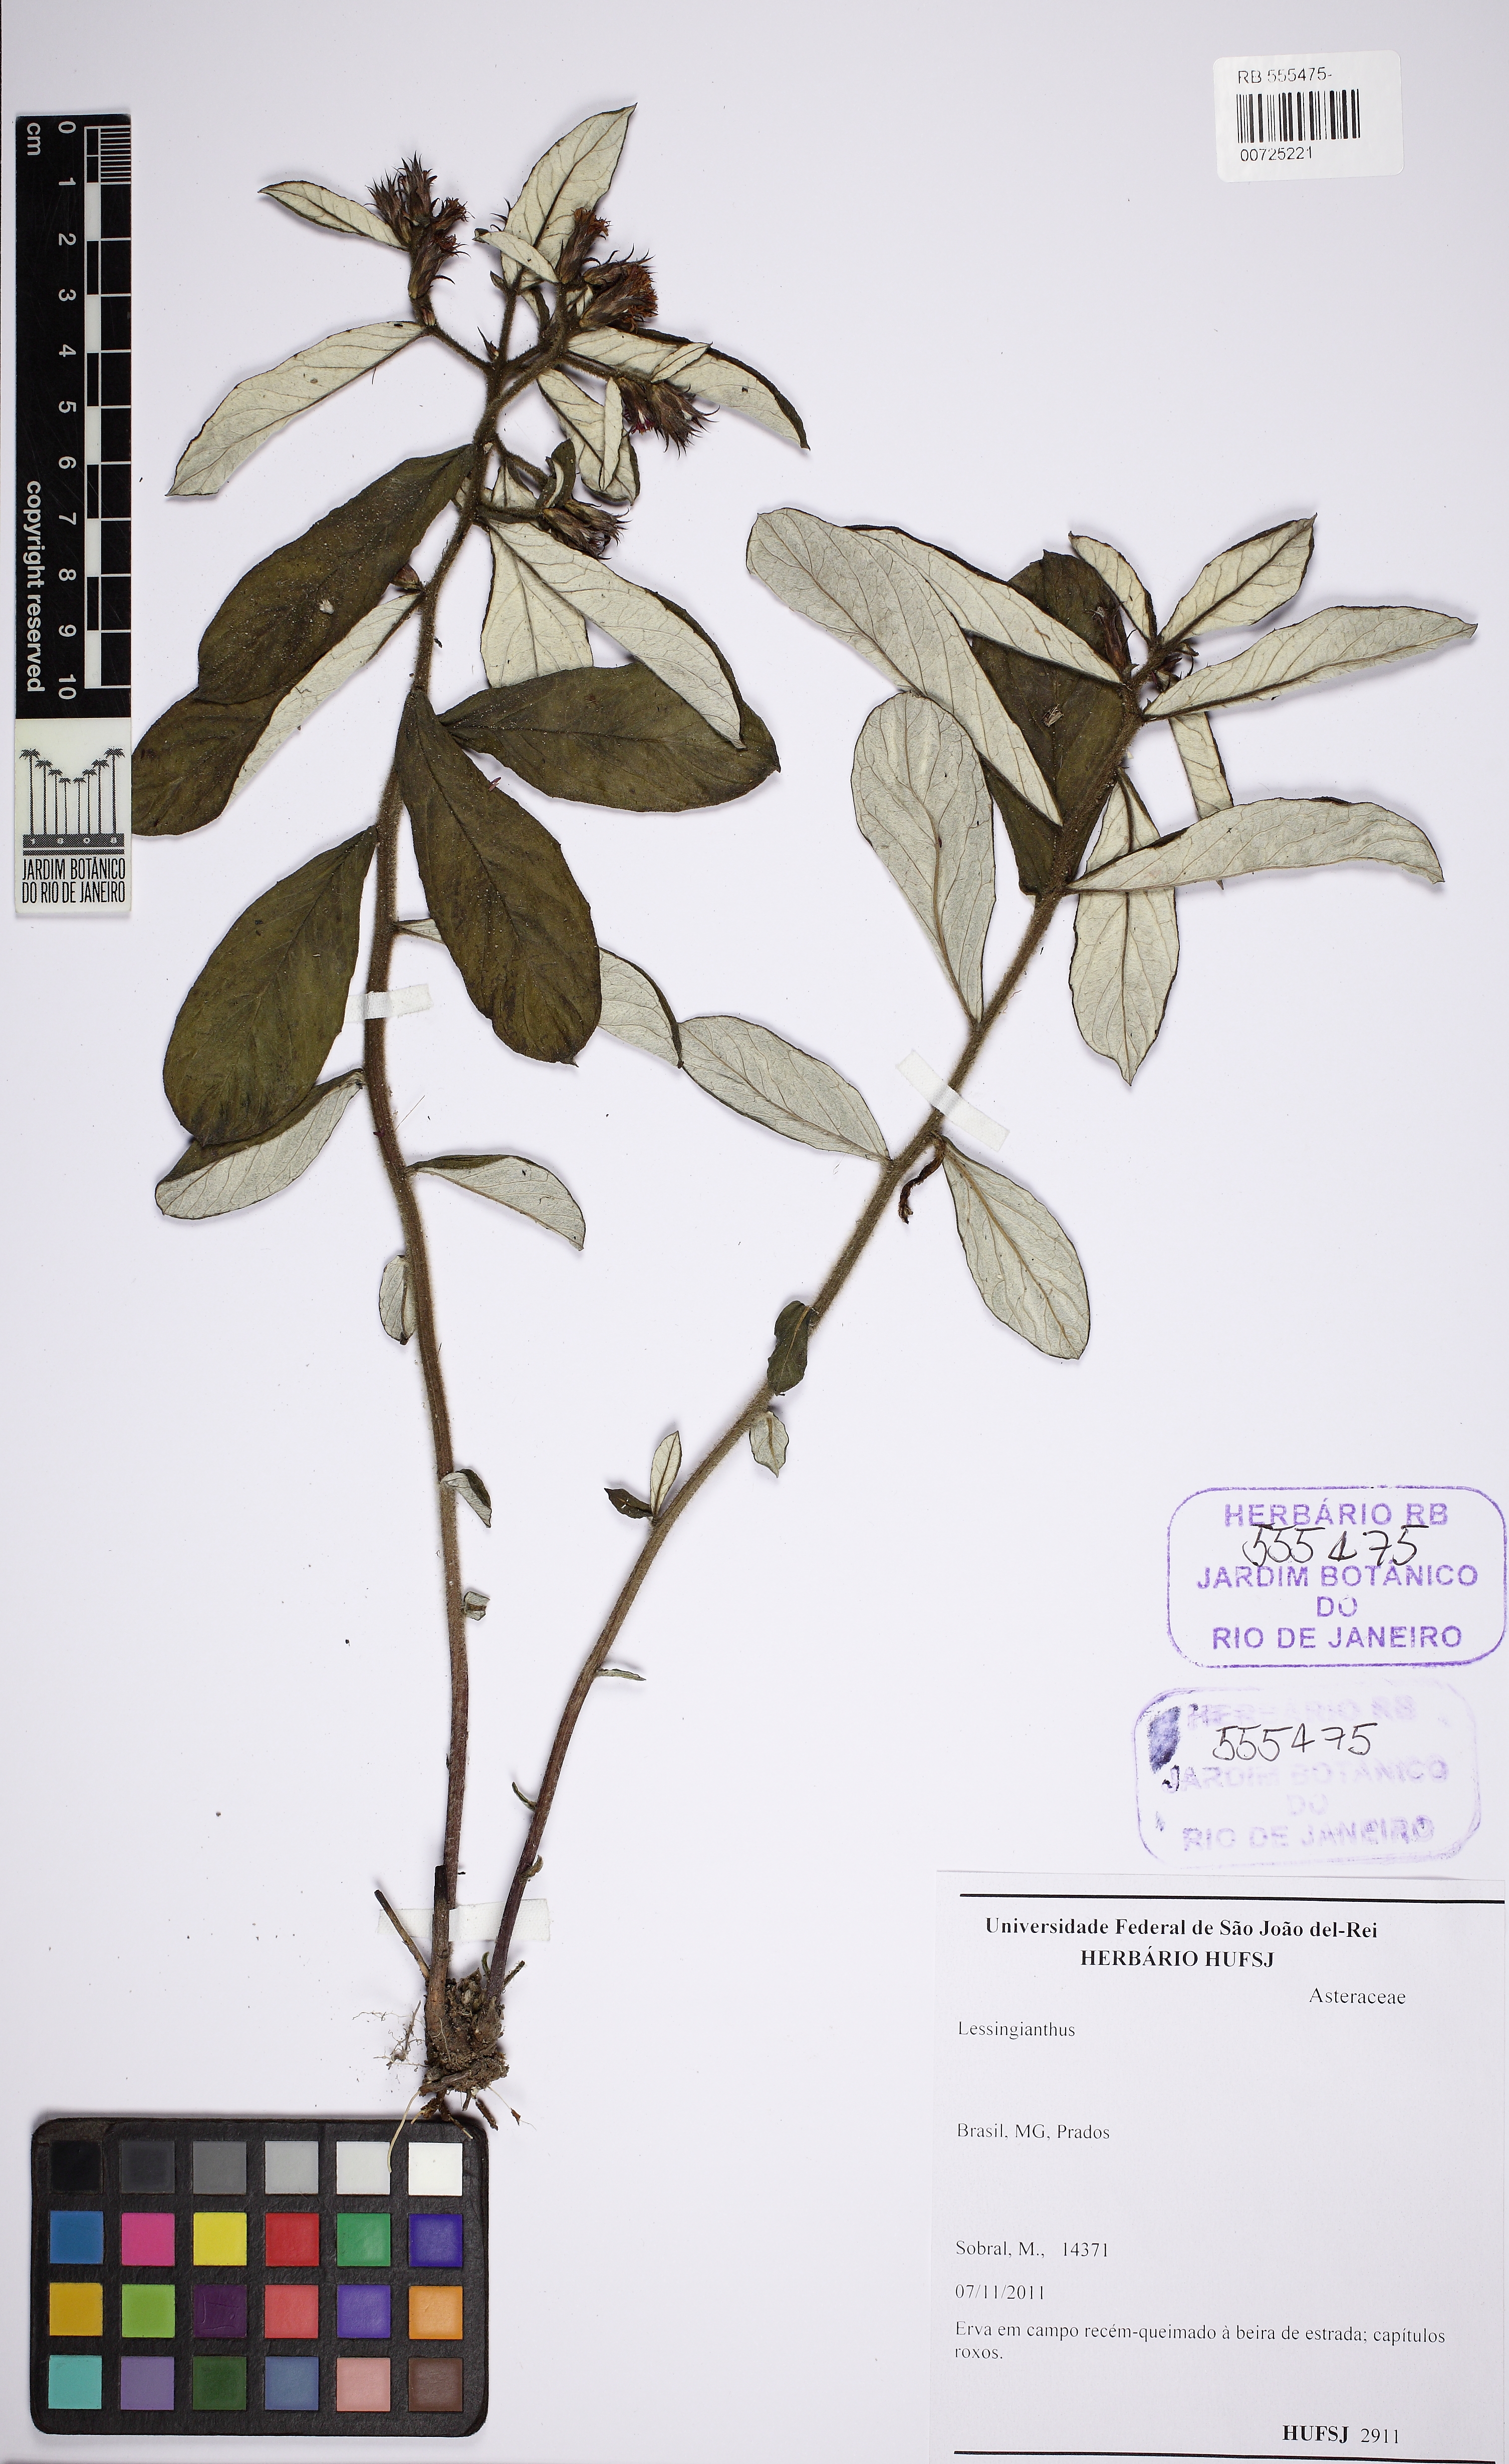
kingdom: Plantae
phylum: Tracheophyta
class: Magnoliopsida
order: Asterales
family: Asteraceae
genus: Lessingianthus
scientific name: Lessingianthus
